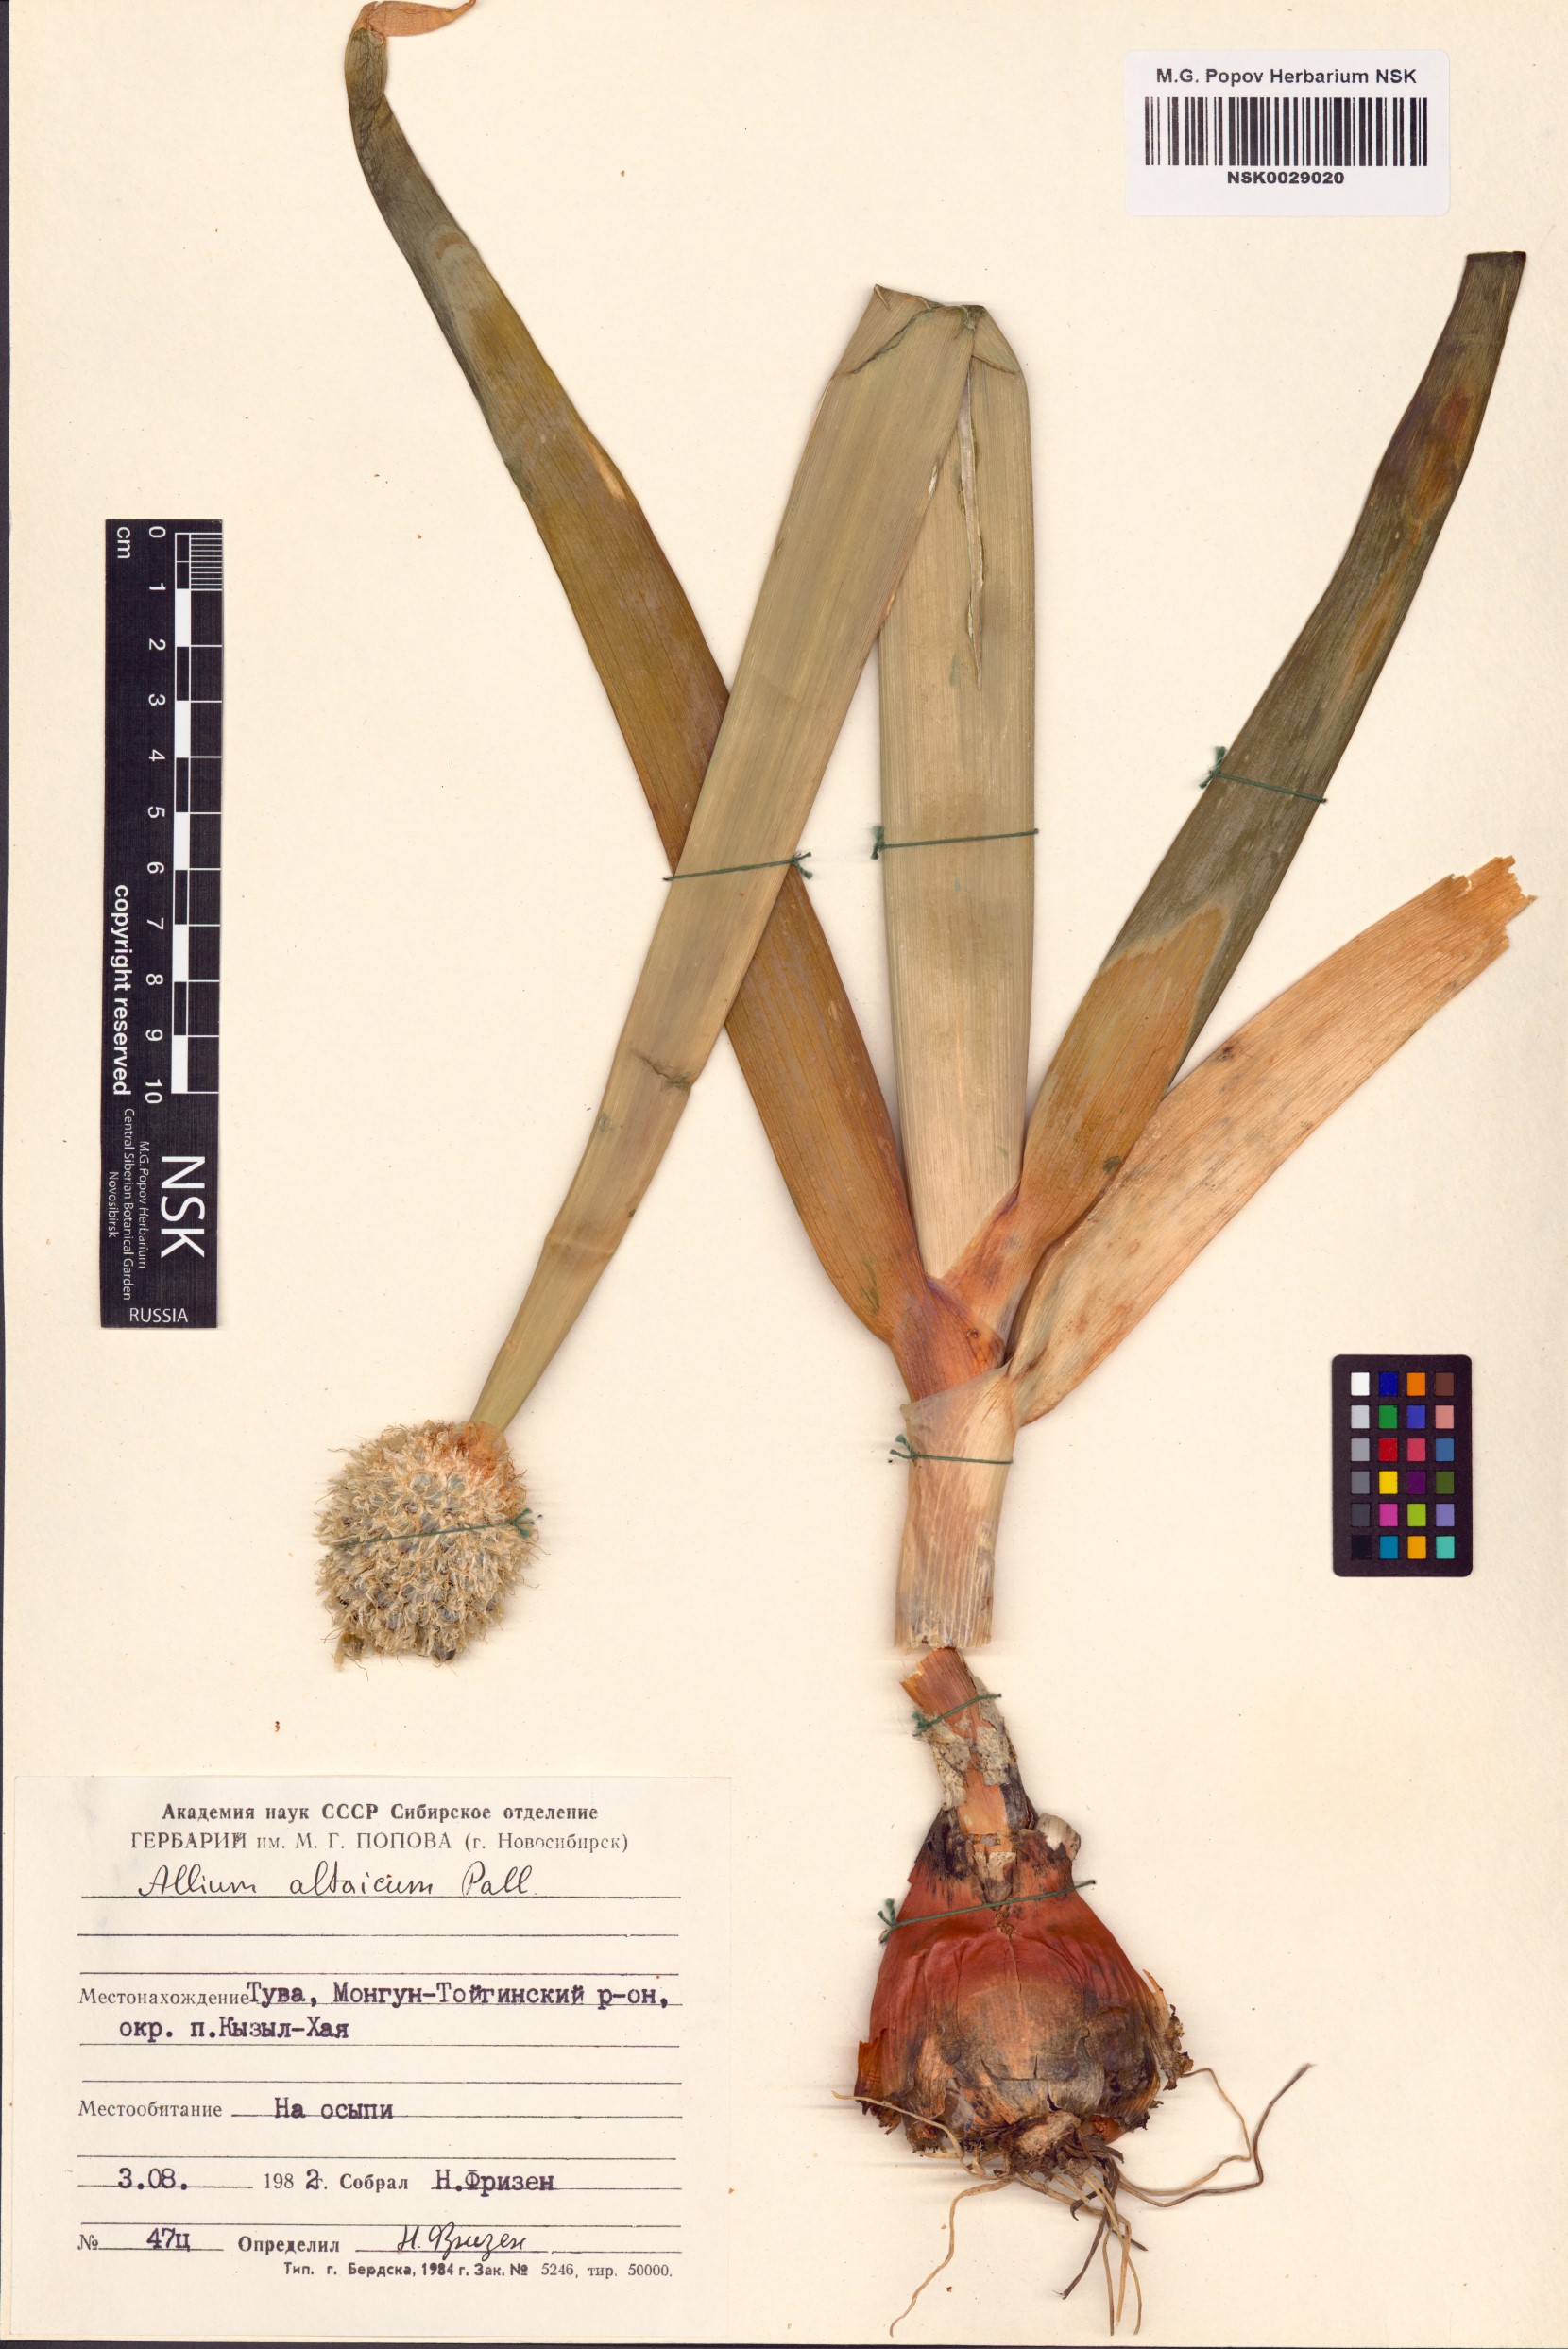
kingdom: Plantae
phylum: Tracheophyta
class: Liliopsida
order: Asparagales
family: Amaryllidaceae
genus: Allium
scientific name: Allium altaicum
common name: Altai onion
